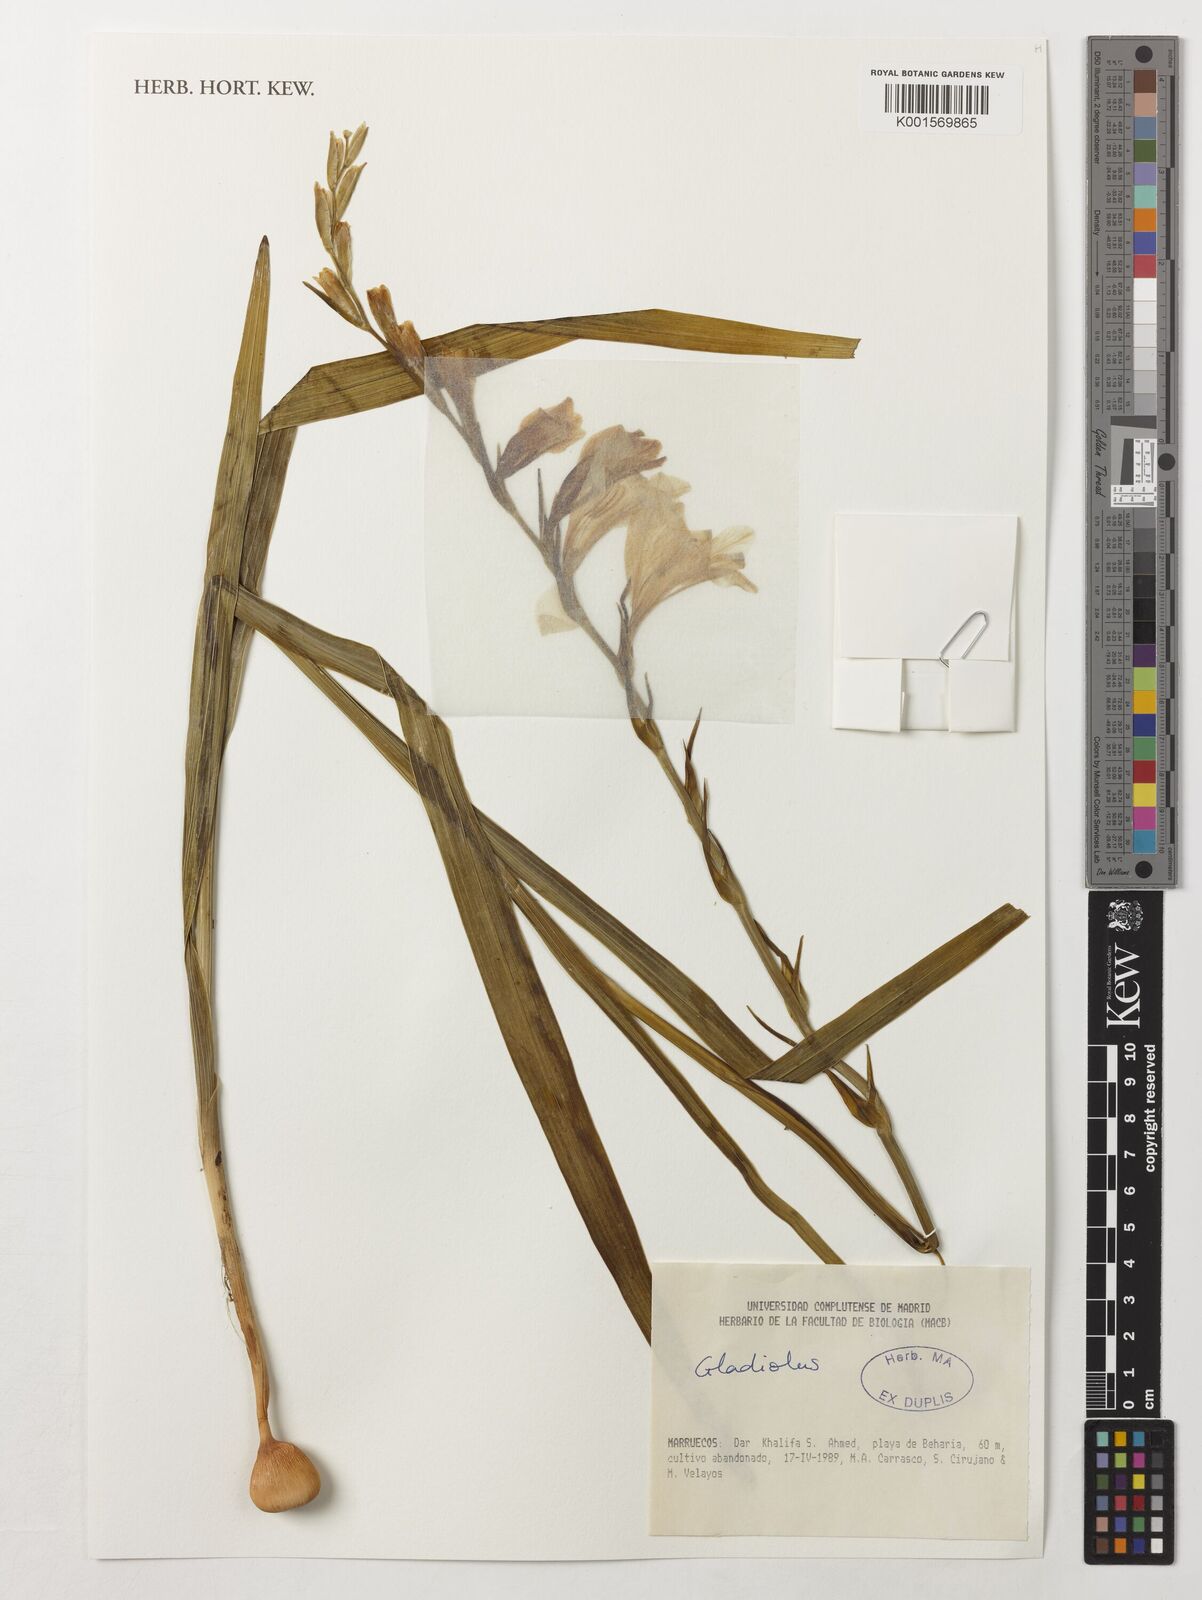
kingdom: Plantae
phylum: Tracheophyta
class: Liliopsida
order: Asparagales
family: Iridaceae
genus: Gladiolus
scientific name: Gladiolus
